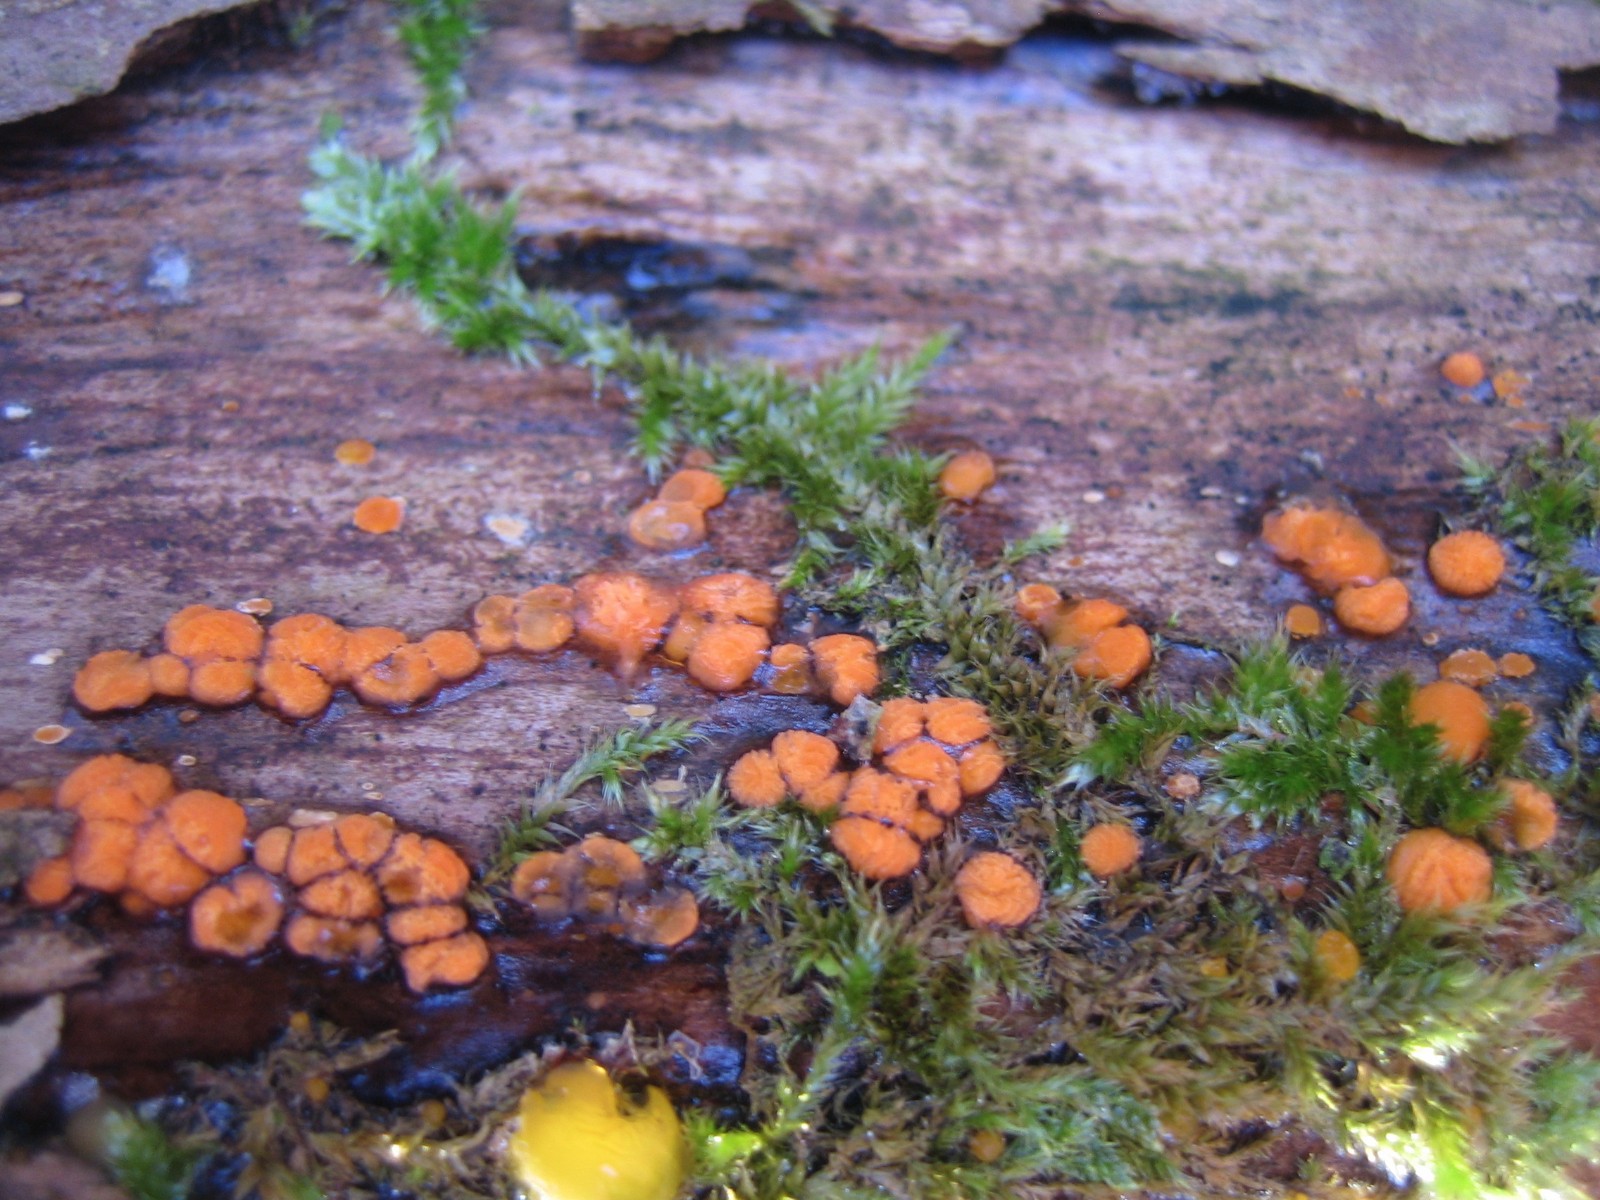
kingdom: Fungi
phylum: Basidiomycota
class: Agaricomycetes
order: Polyporales
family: Meruliaceae
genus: Phlebia
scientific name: Phlebia radiata
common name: stråle-åresvamp
